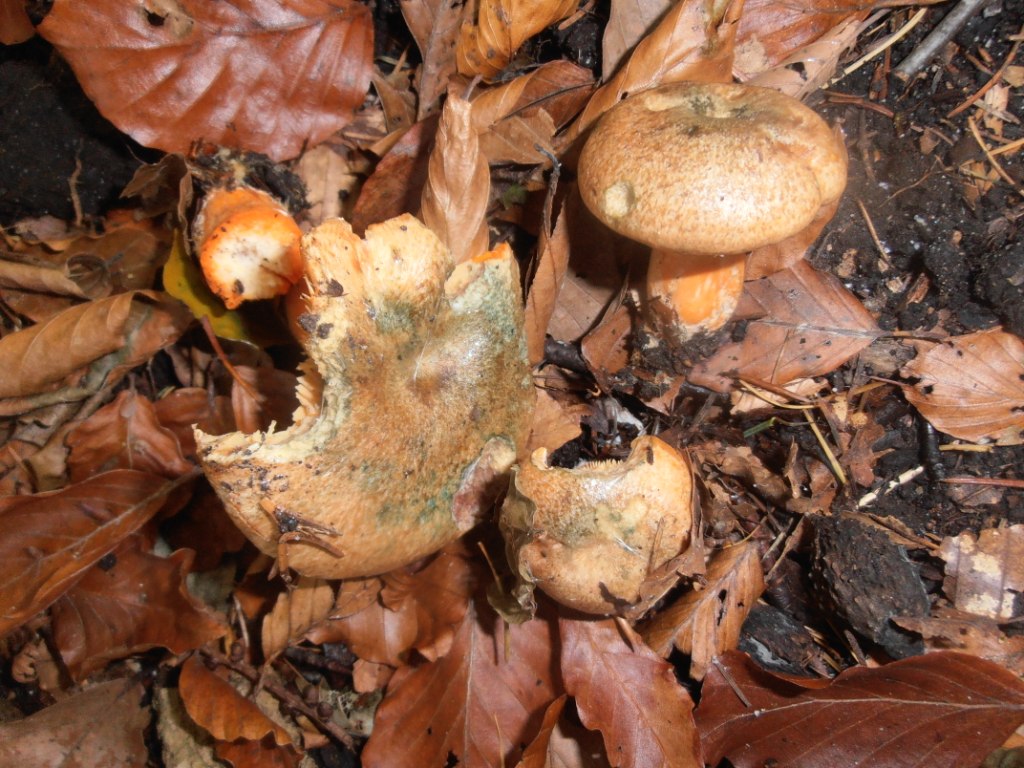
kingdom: Fungi
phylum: Basidiomycota
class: Agaricomycetes
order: Russulales
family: Russulaceae
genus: Lactarius
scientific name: Lactarius
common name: mælkehat
